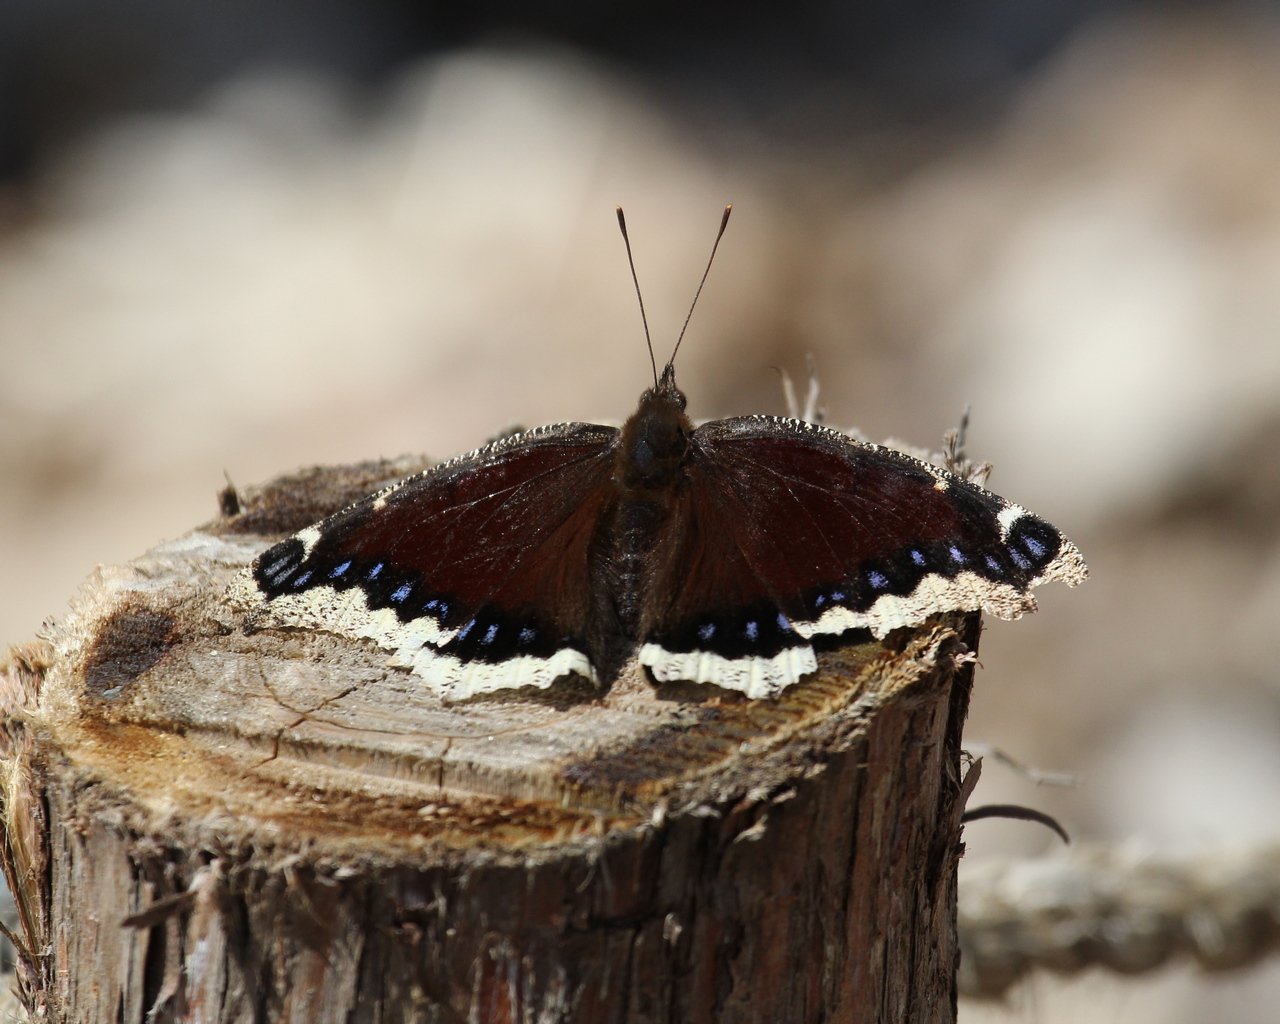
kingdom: Animalia
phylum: Arthropoda
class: Insecta
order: Lepidoptera
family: Nymphalidae
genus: Nymphalis
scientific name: Nymphalis antiopa
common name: Mourning Cloak
